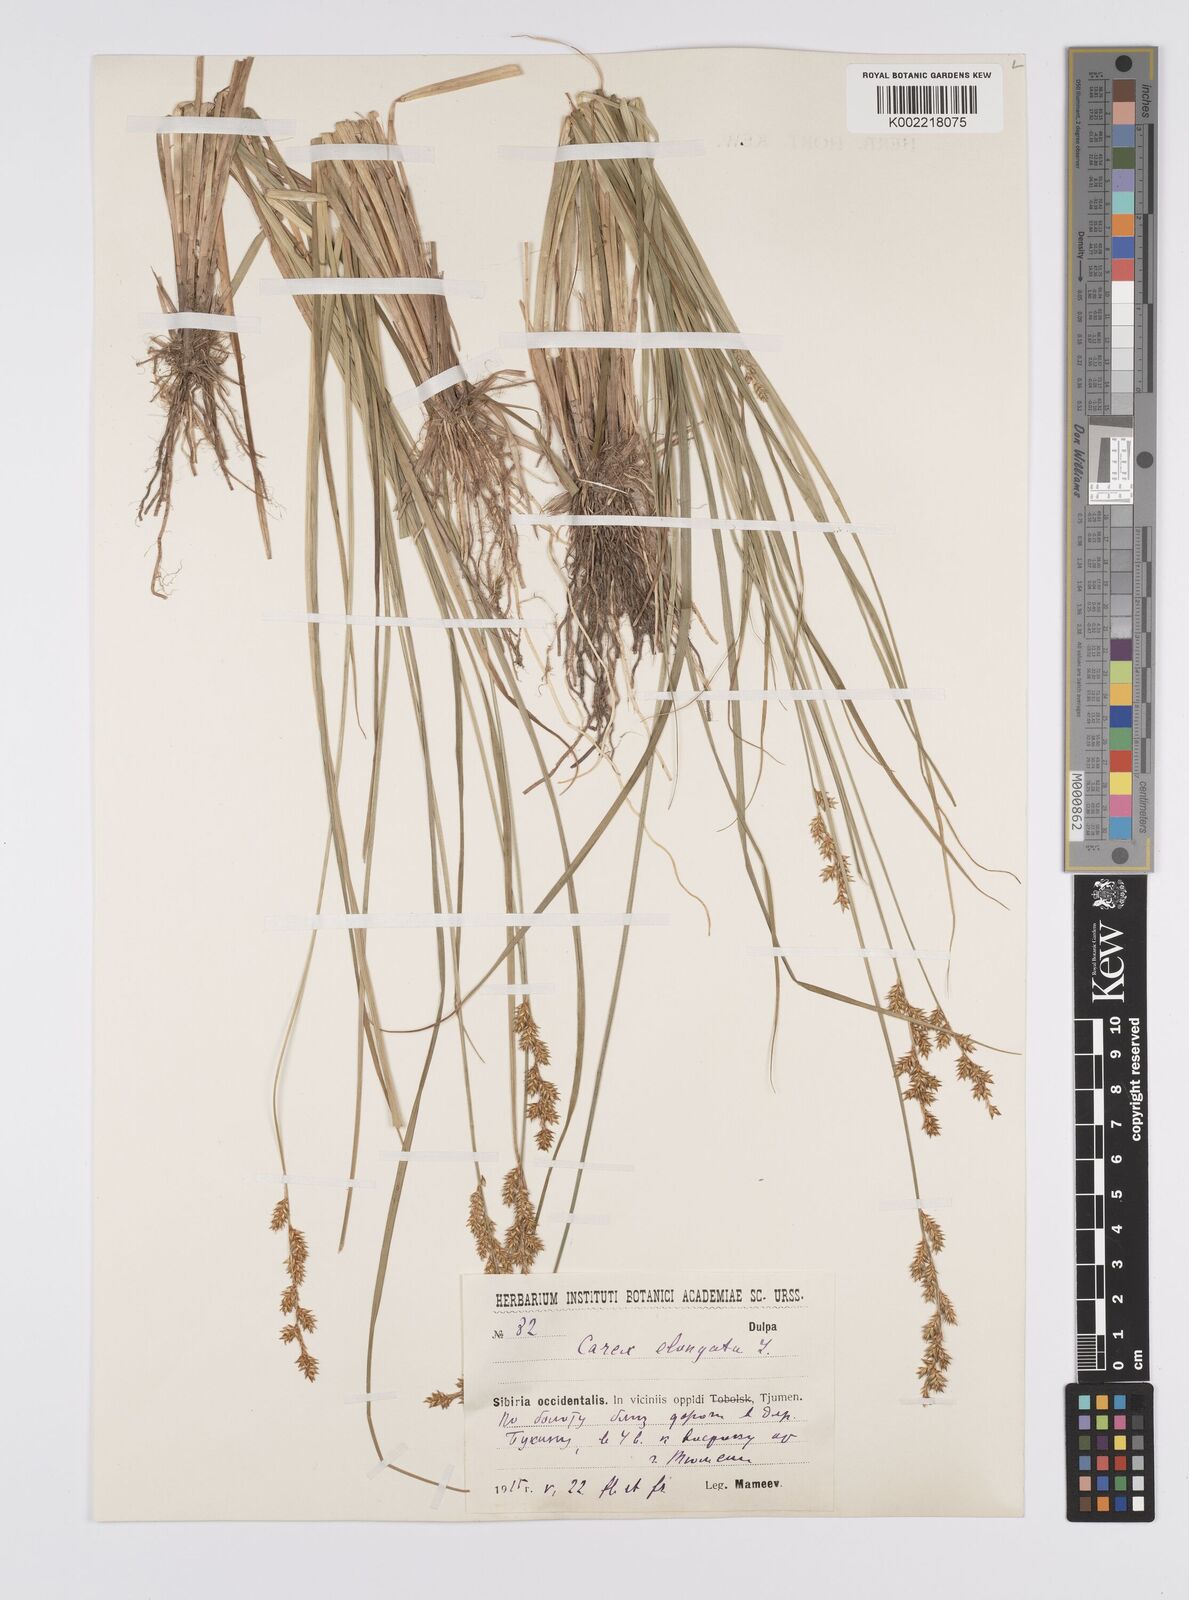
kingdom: Plantae
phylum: Tracheophyta
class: Liliopsida
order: Poales
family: Cyperaceae
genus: Carex
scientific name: Carex elongata
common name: Elongated sedge
